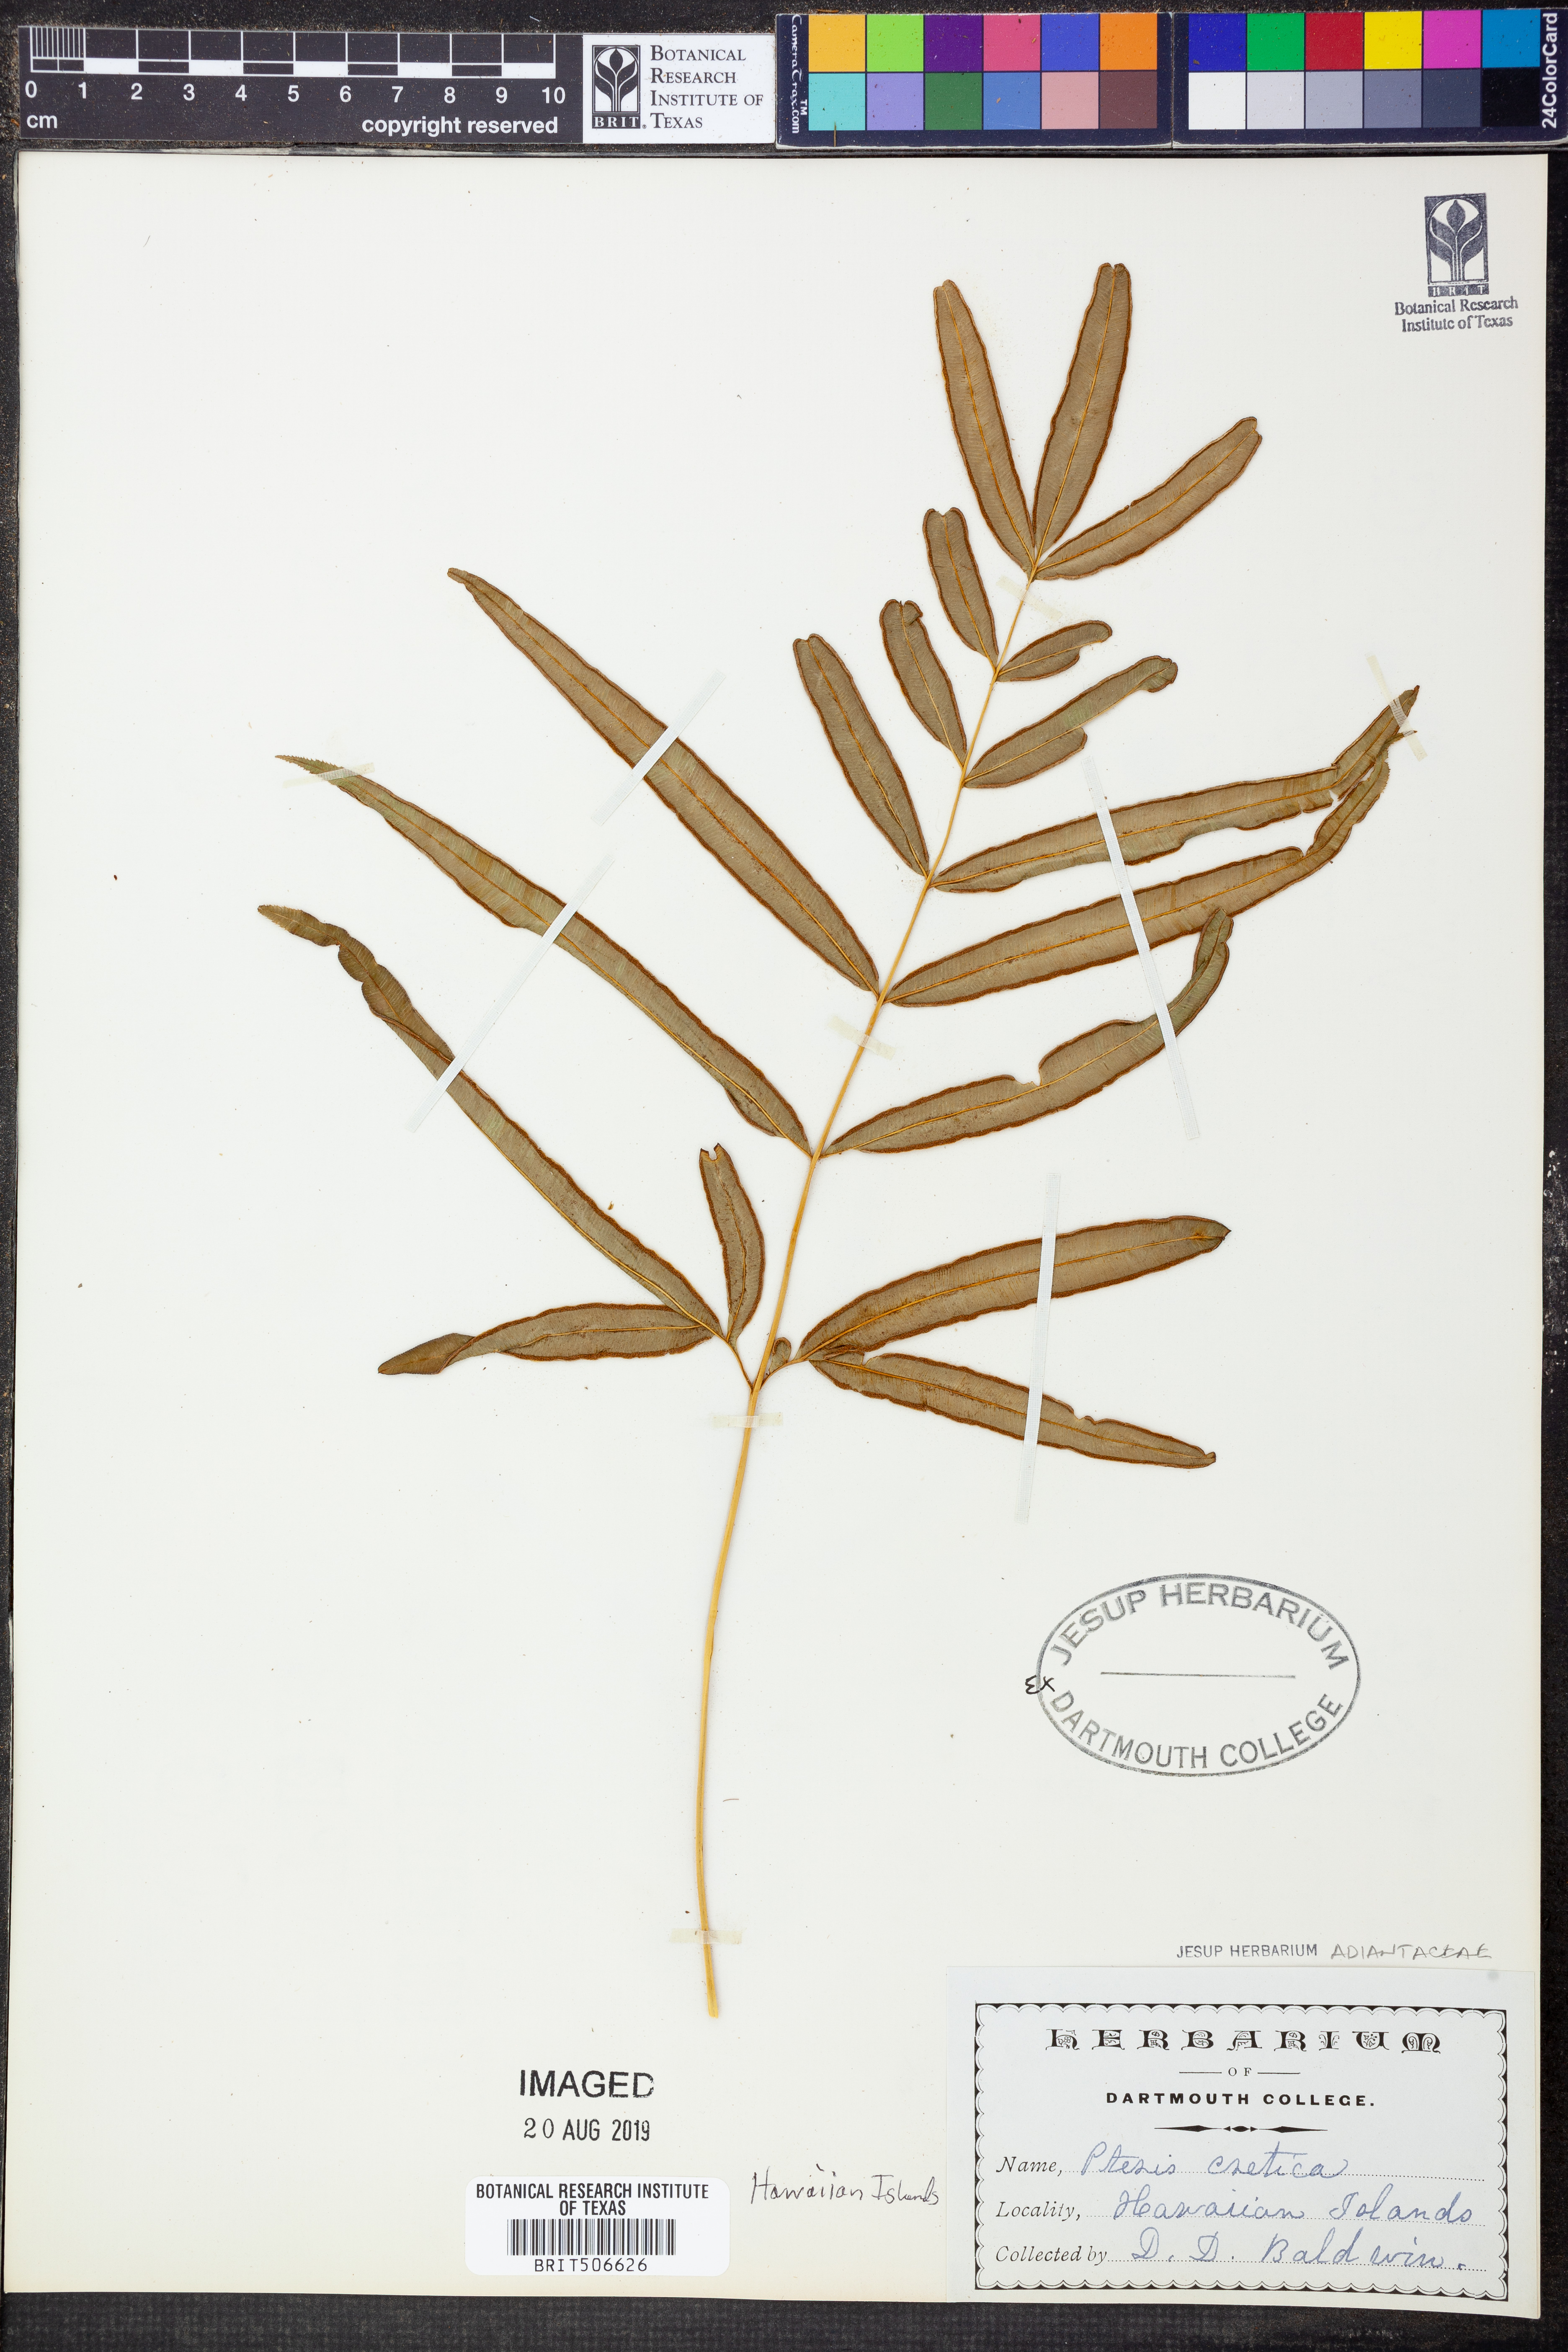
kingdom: Plantae
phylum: Tracheophyta
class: Polypodiopsida
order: Polypodiales
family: Pteridaceae
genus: Pteris
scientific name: Pteris cretica
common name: Ribbon fern
